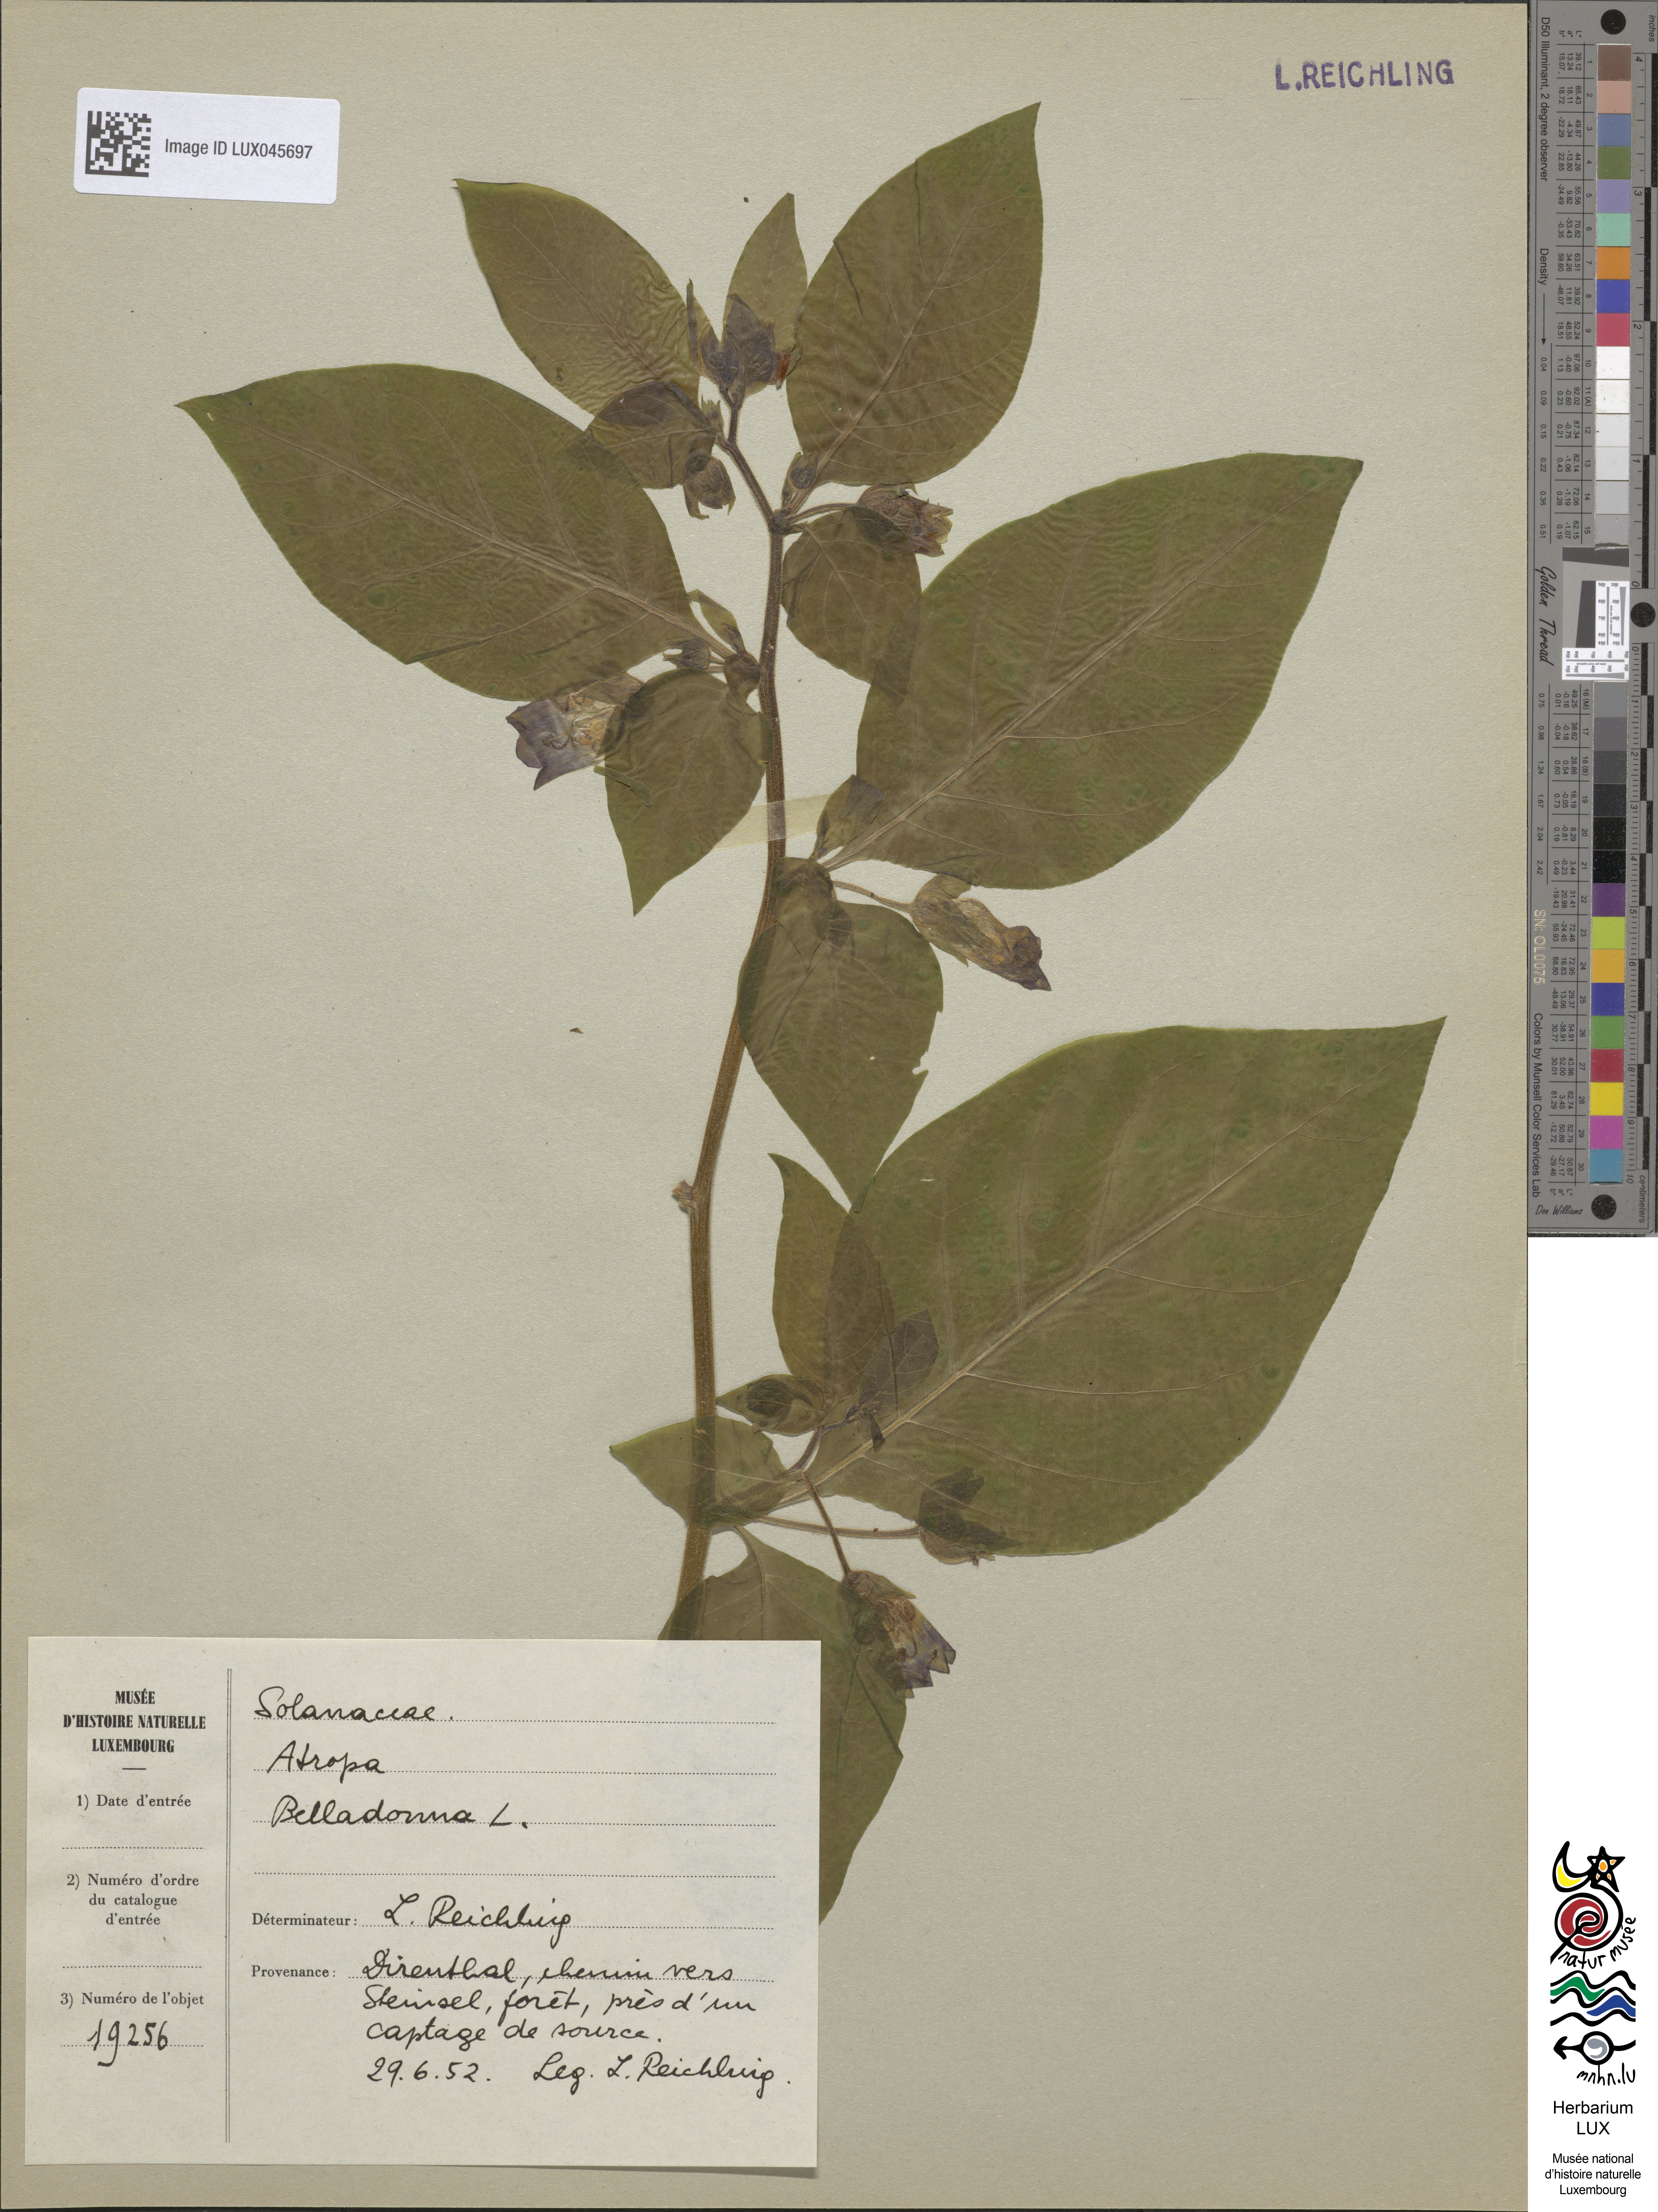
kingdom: Plantae
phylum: Tracheophyta
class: Magnoliopsida
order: Solanales
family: Solanaceae
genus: Atropa
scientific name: Atropa belladonna
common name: Deadly nightshade
